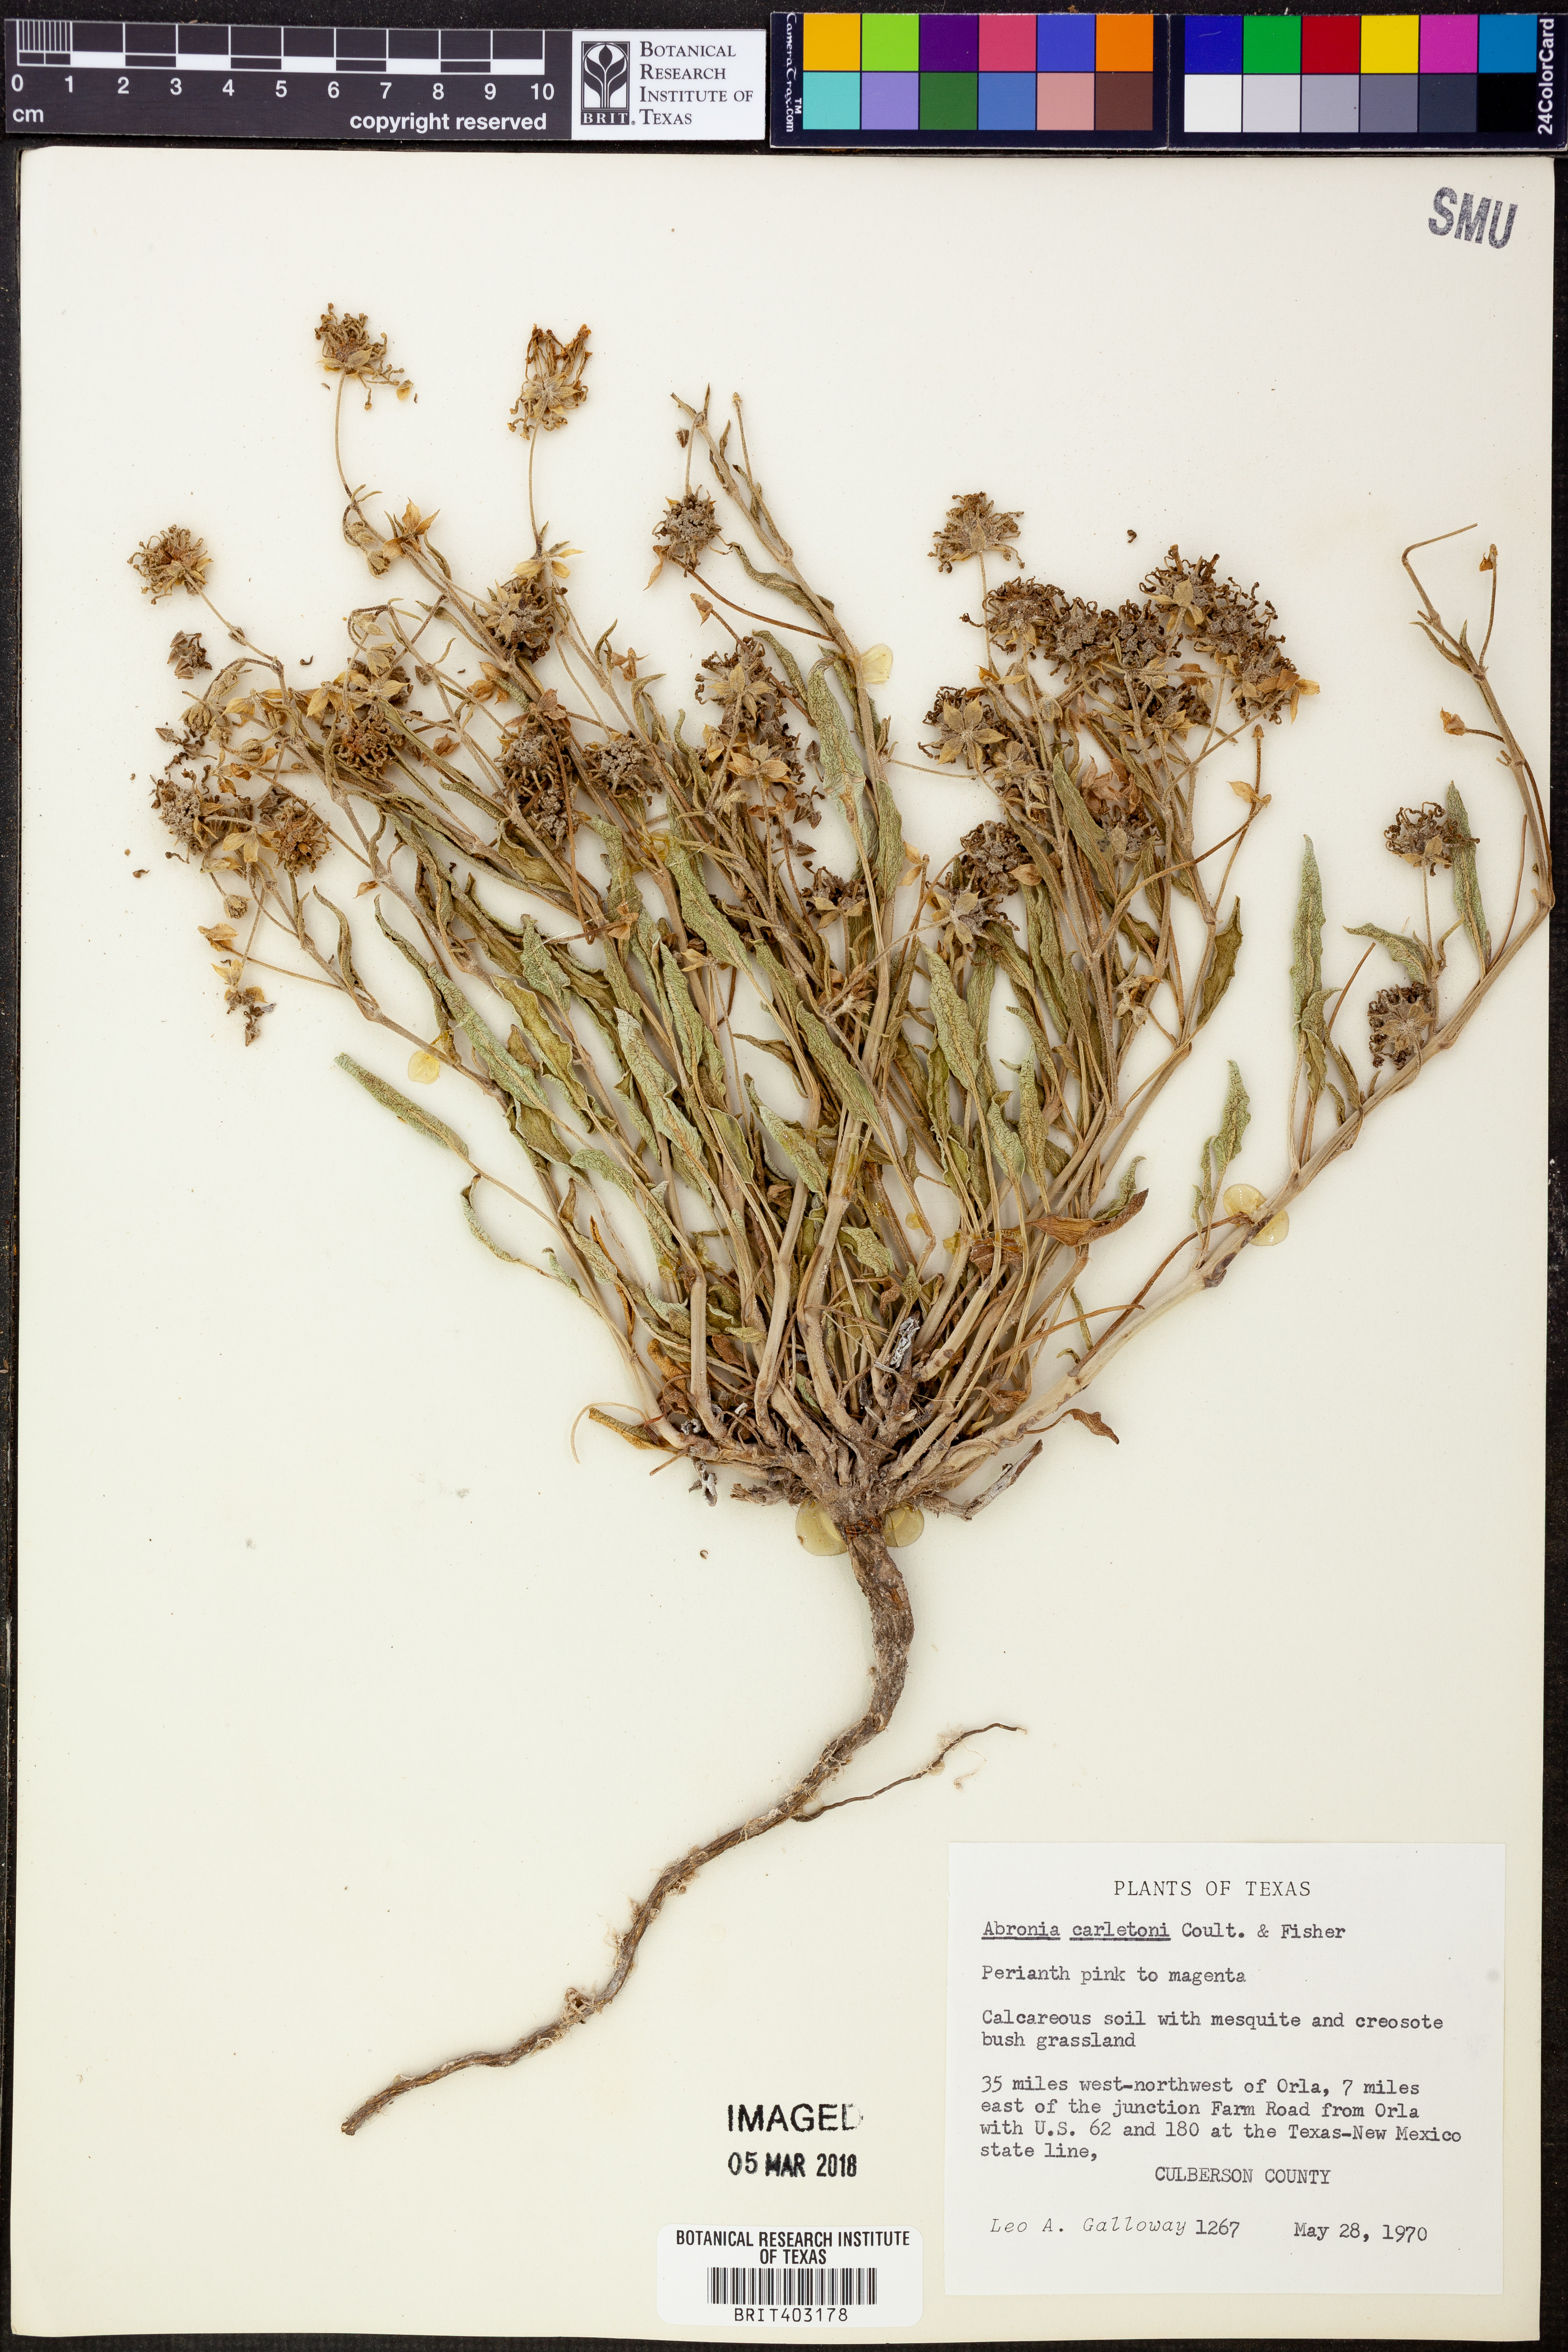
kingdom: Plantae
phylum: Tracheophyta
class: Magnoliopsida
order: Caryophyllales
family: Nyctaginaceae
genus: Abronia
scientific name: Abronia carletonii
